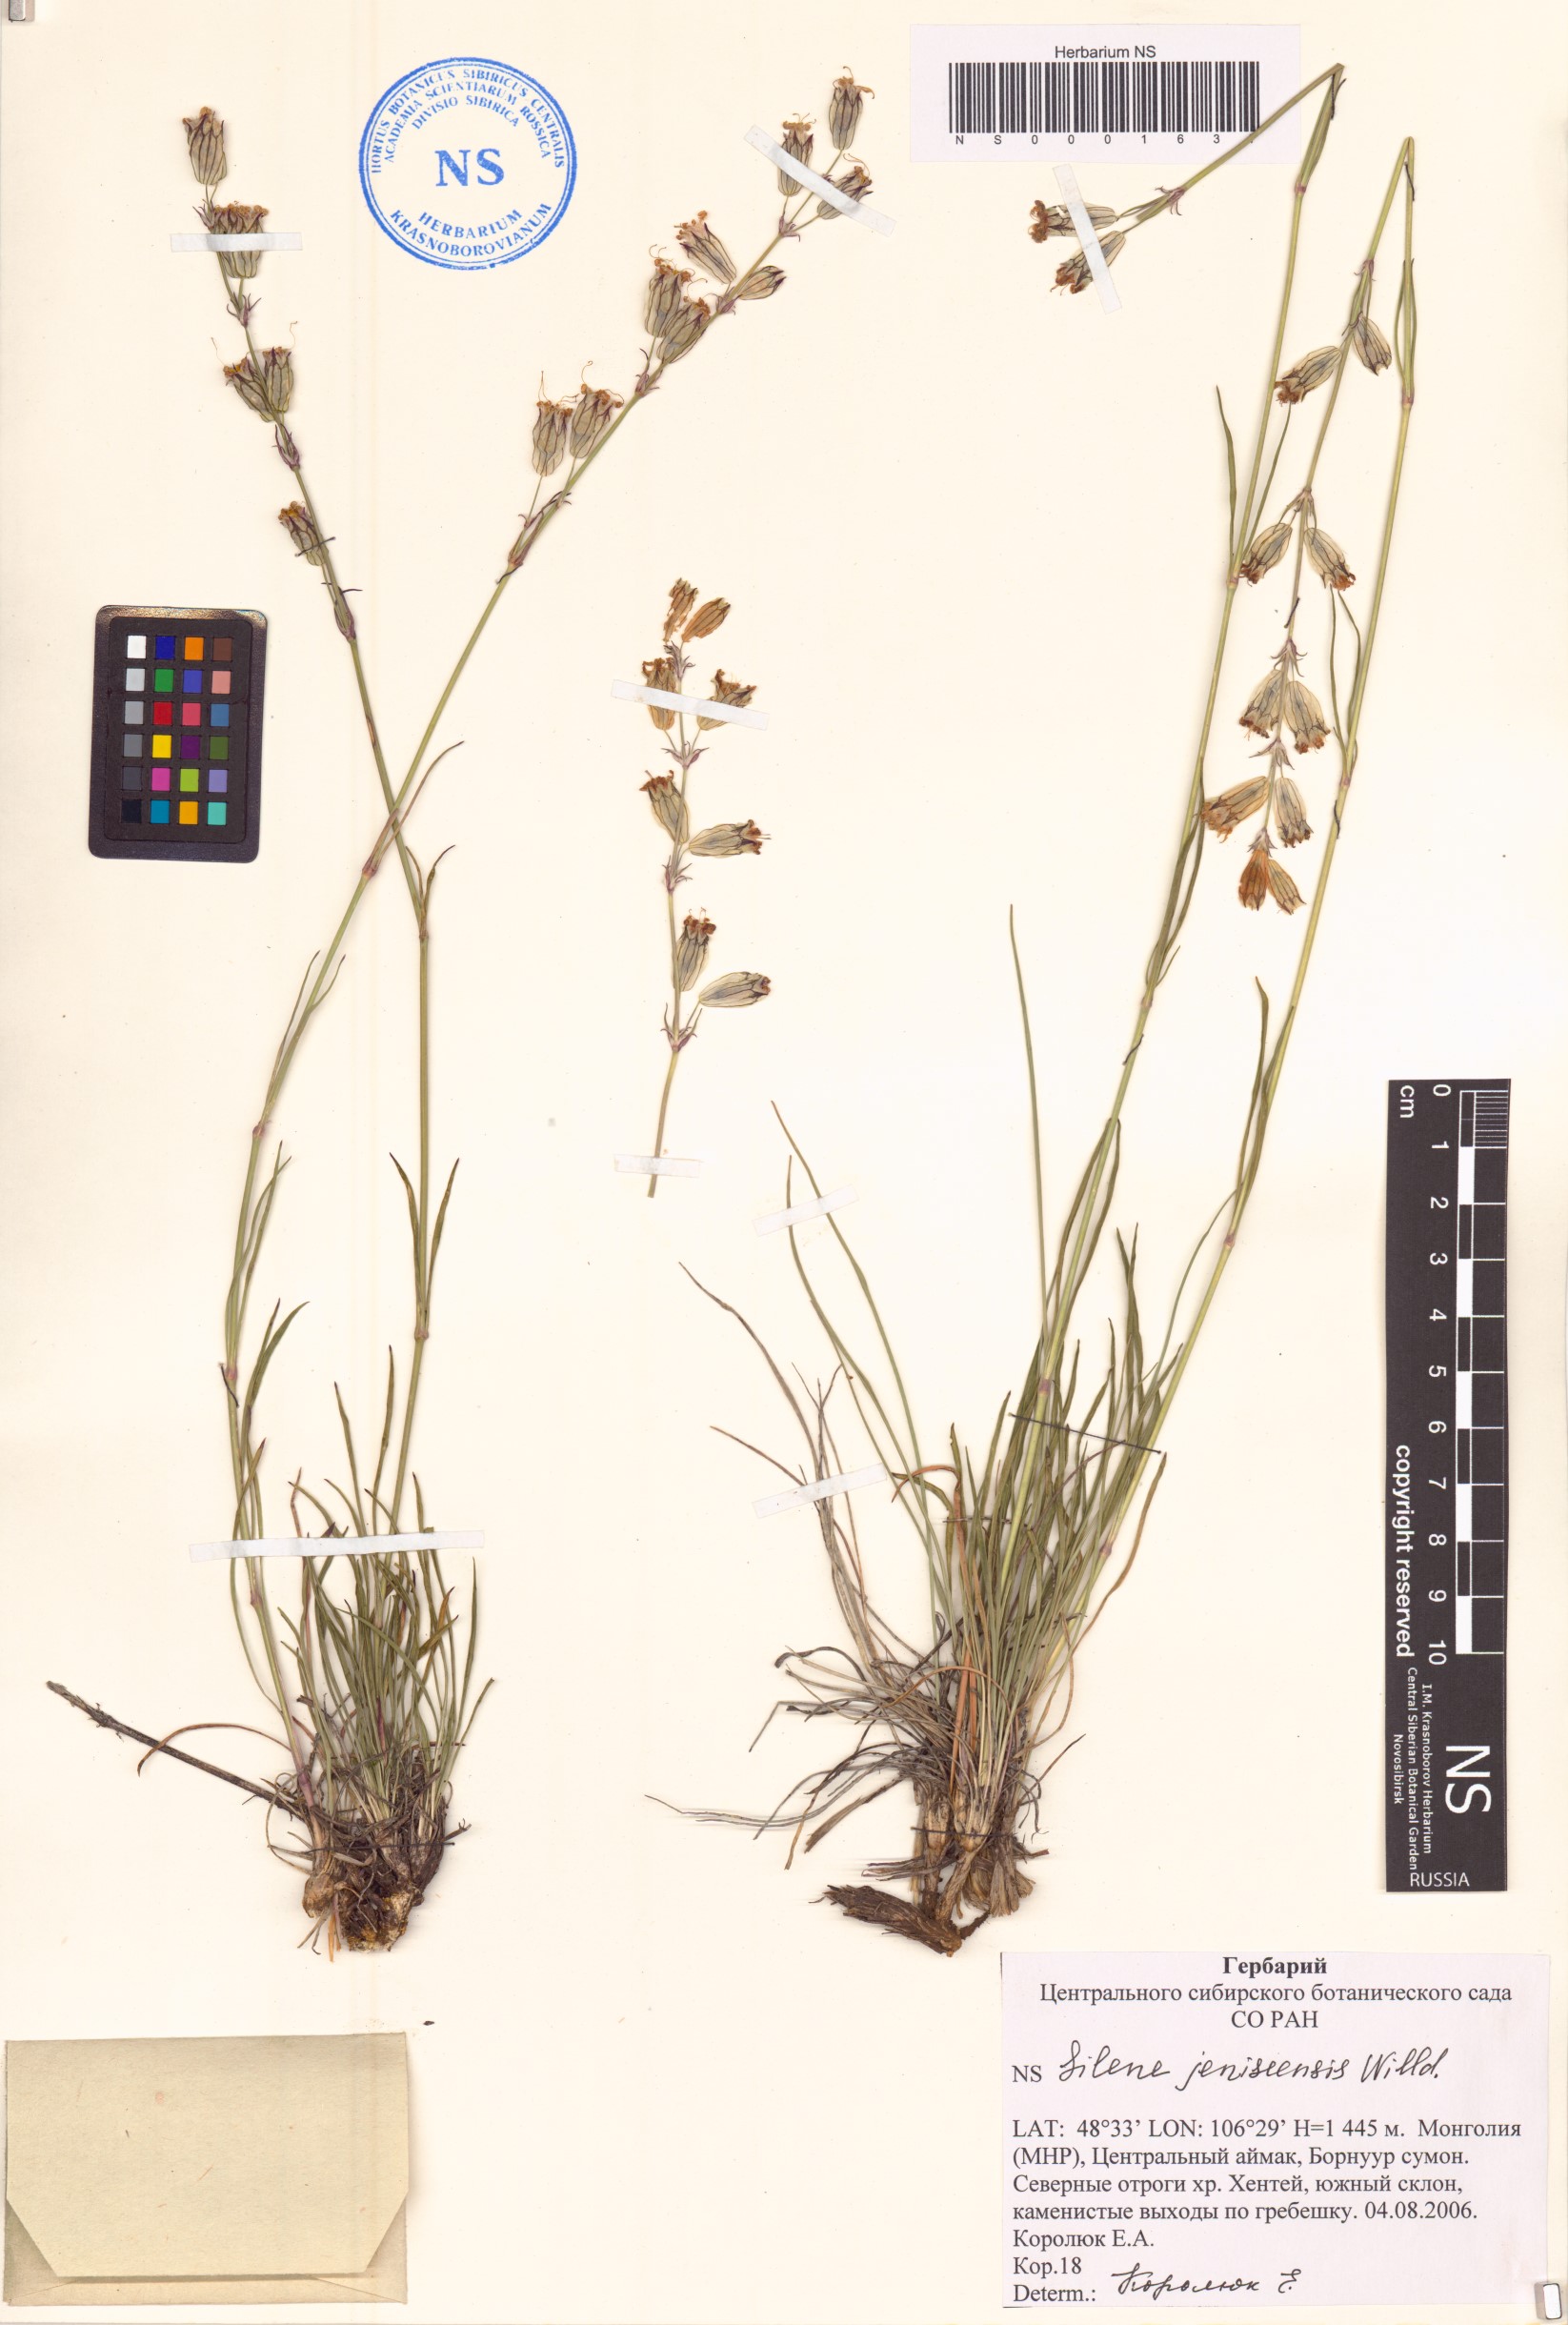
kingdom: Plantae
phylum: Tracheophyta
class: Magnoliopsida
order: Caryophyllales
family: Caryophyllaceae
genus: Silene
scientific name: Silene jeniseensis
